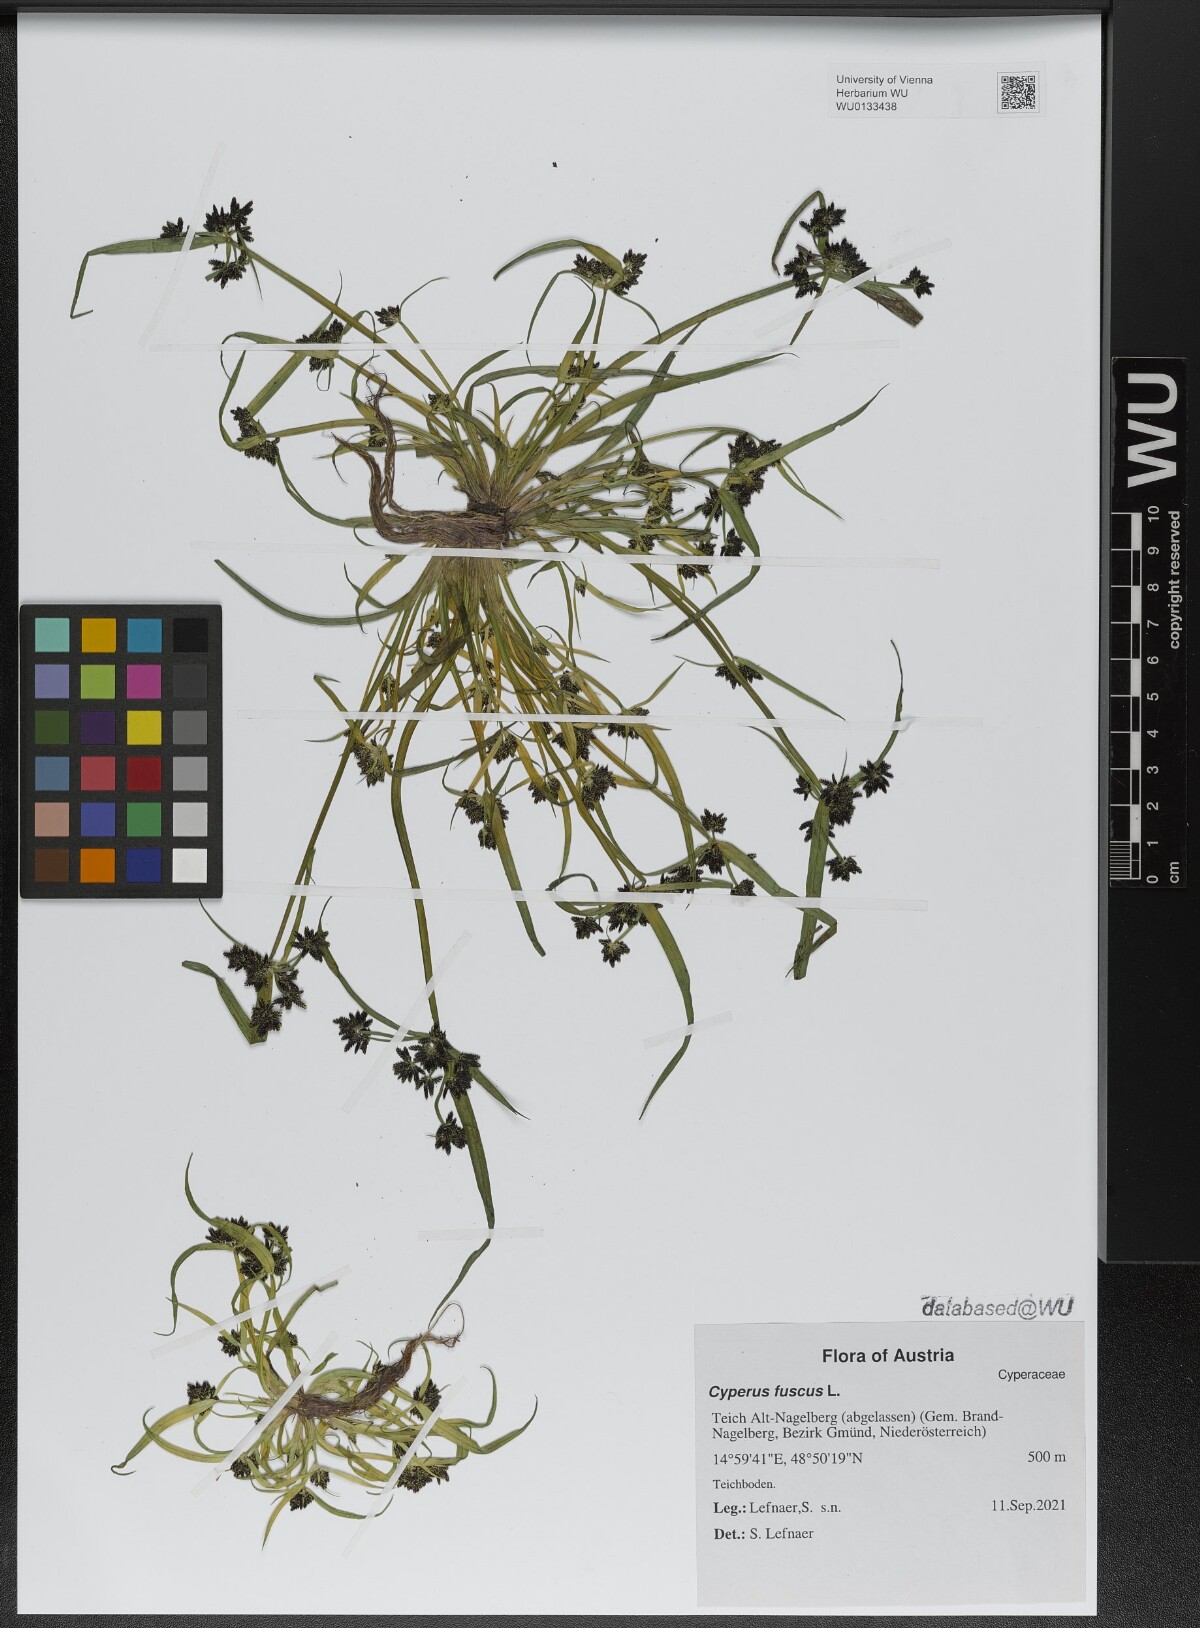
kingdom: Plantae
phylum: Tracheophyta
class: Liliopsida
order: Poales
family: Cyperaceae
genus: Cyperus
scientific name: Cyperus fuscus
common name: Brown galingale
